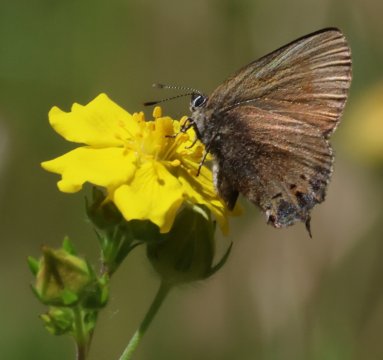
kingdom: Animalia
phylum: Arthropoda
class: Insecta
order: Lepidoptera
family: Lycaenidae
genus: Mitoura
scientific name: Mitoura gryneus
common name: Juniper Hairstreak
